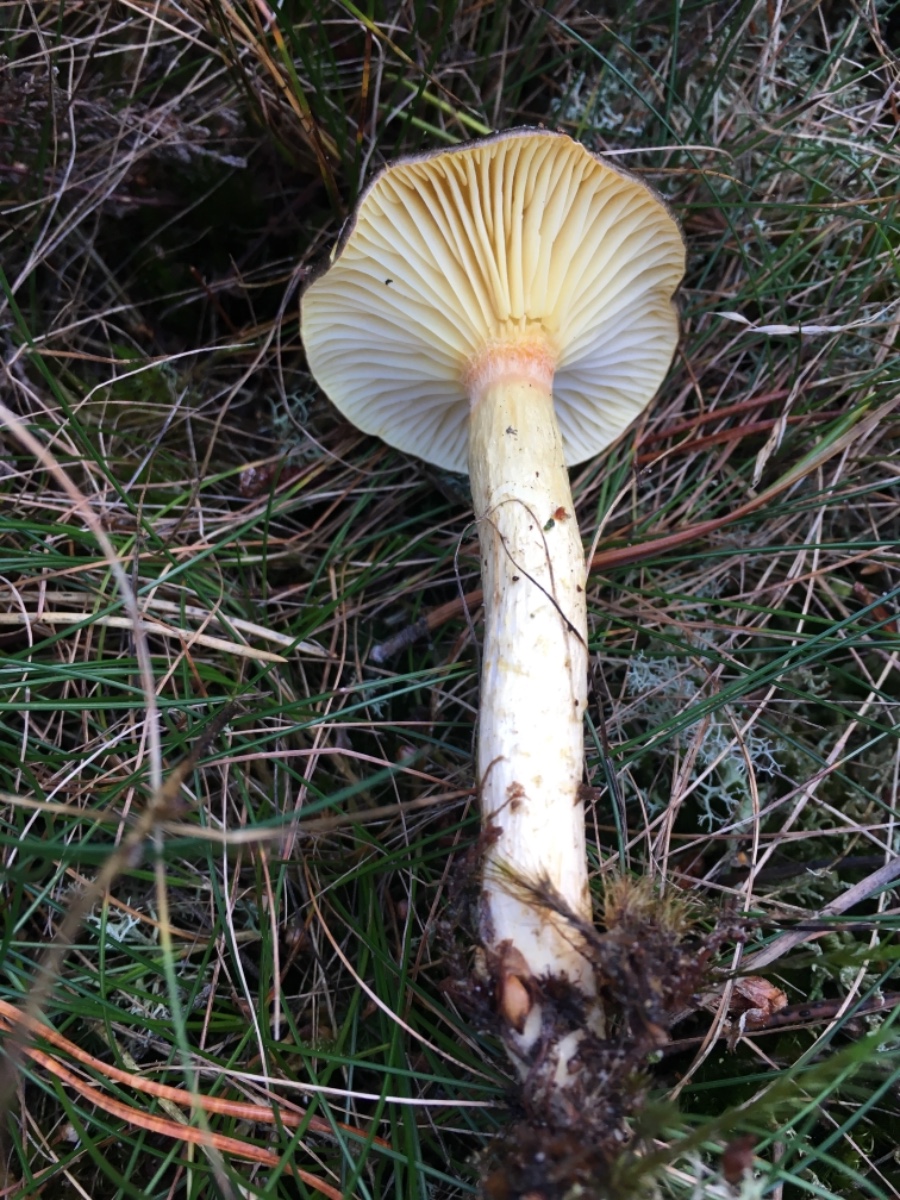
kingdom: Fungi
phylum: Basidiomycota
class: Agaricomycetes
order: Agaricales
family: Hygrophoraceae
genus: Hygrophorus
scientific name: Hygrophorus hypothejus
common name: frost-sneglehat
